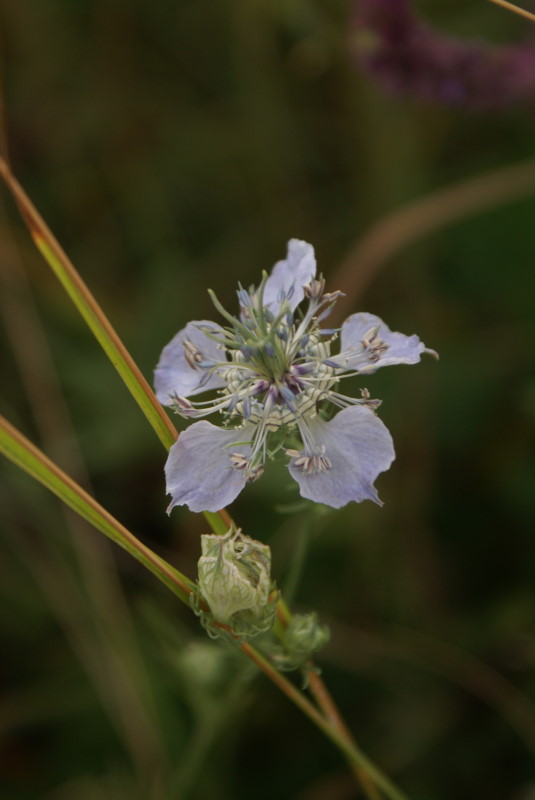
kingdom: Plantae
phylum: Tracheophyta
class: Magnoliopsida
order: Ranunculales
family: Ranunculaceae
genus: Nigella
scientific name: Nigella arvensis
